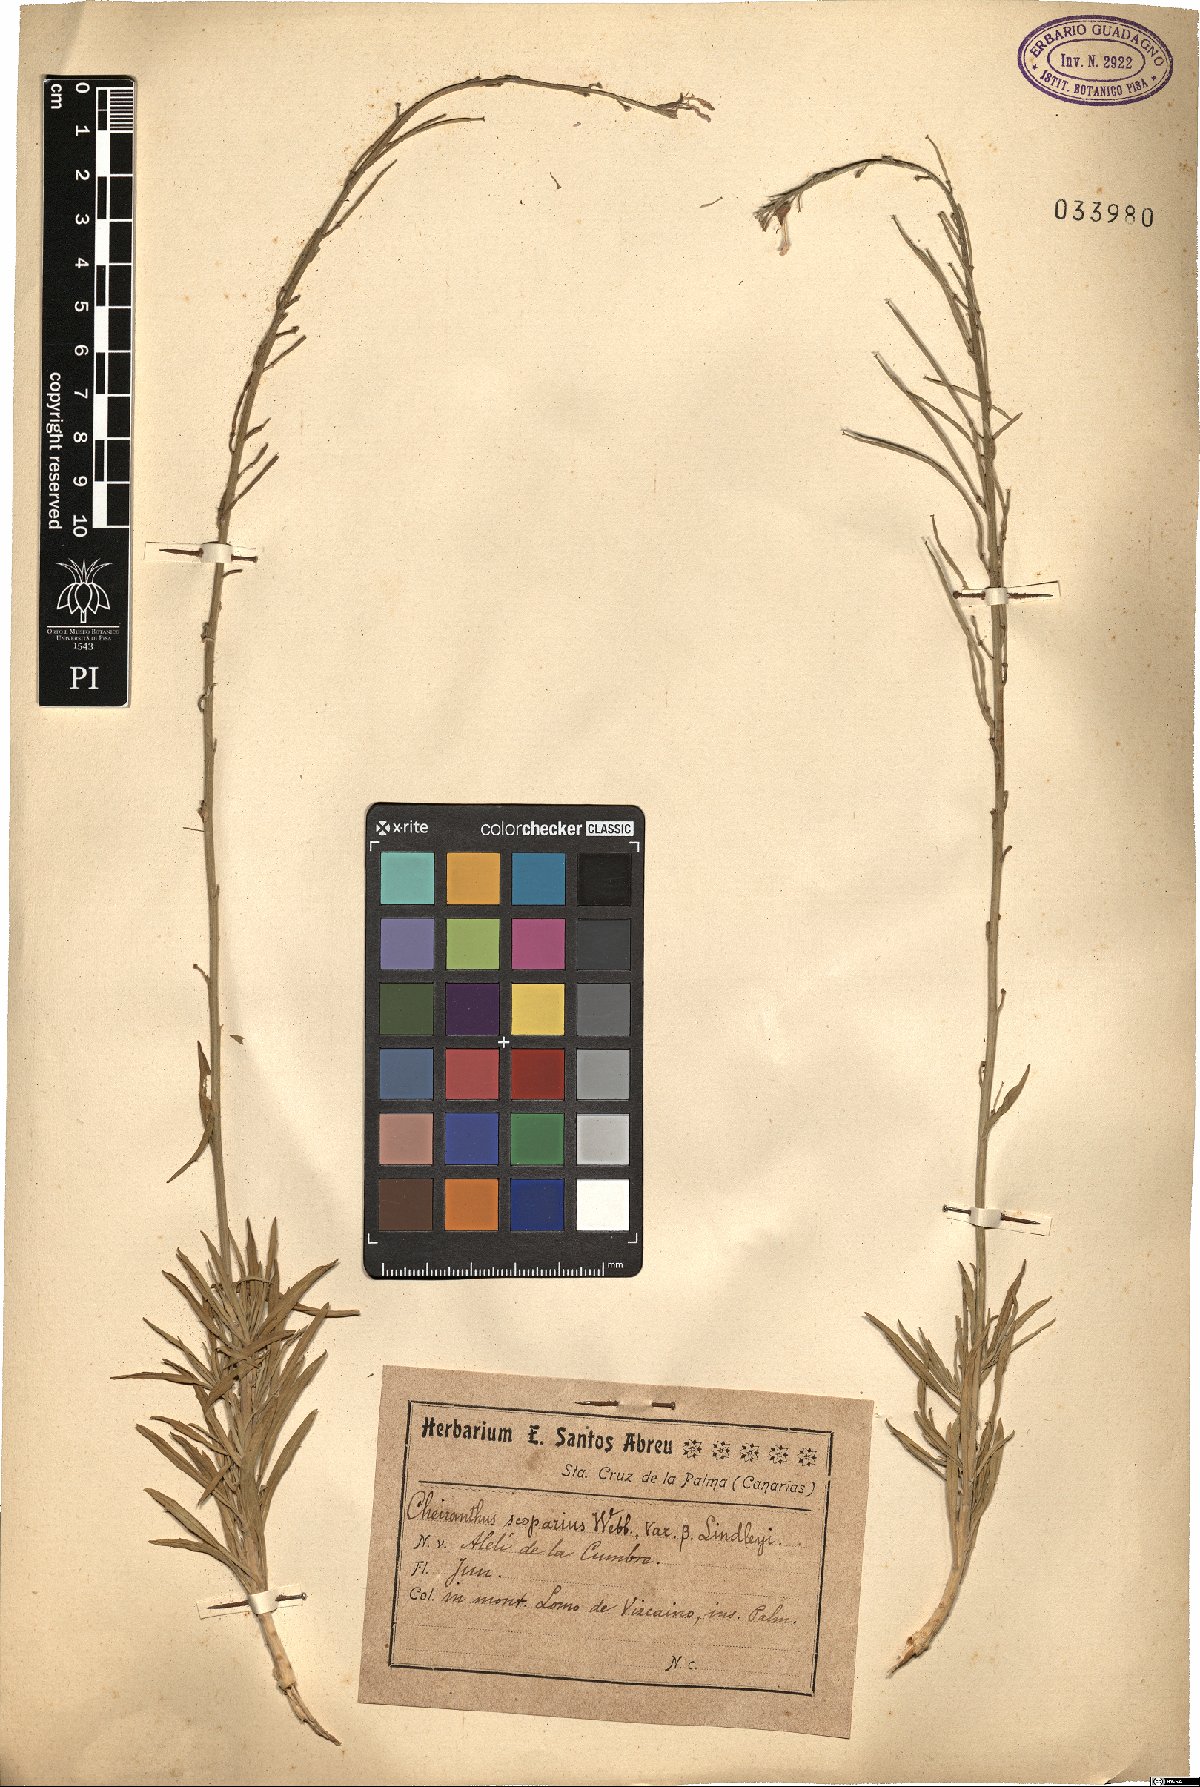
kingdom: Plantae
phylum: Tracheophyta
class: Magnoliopsida
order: Brassicales
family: Brassicaceae
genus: Erysimum
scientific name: Erysimum scoparium
